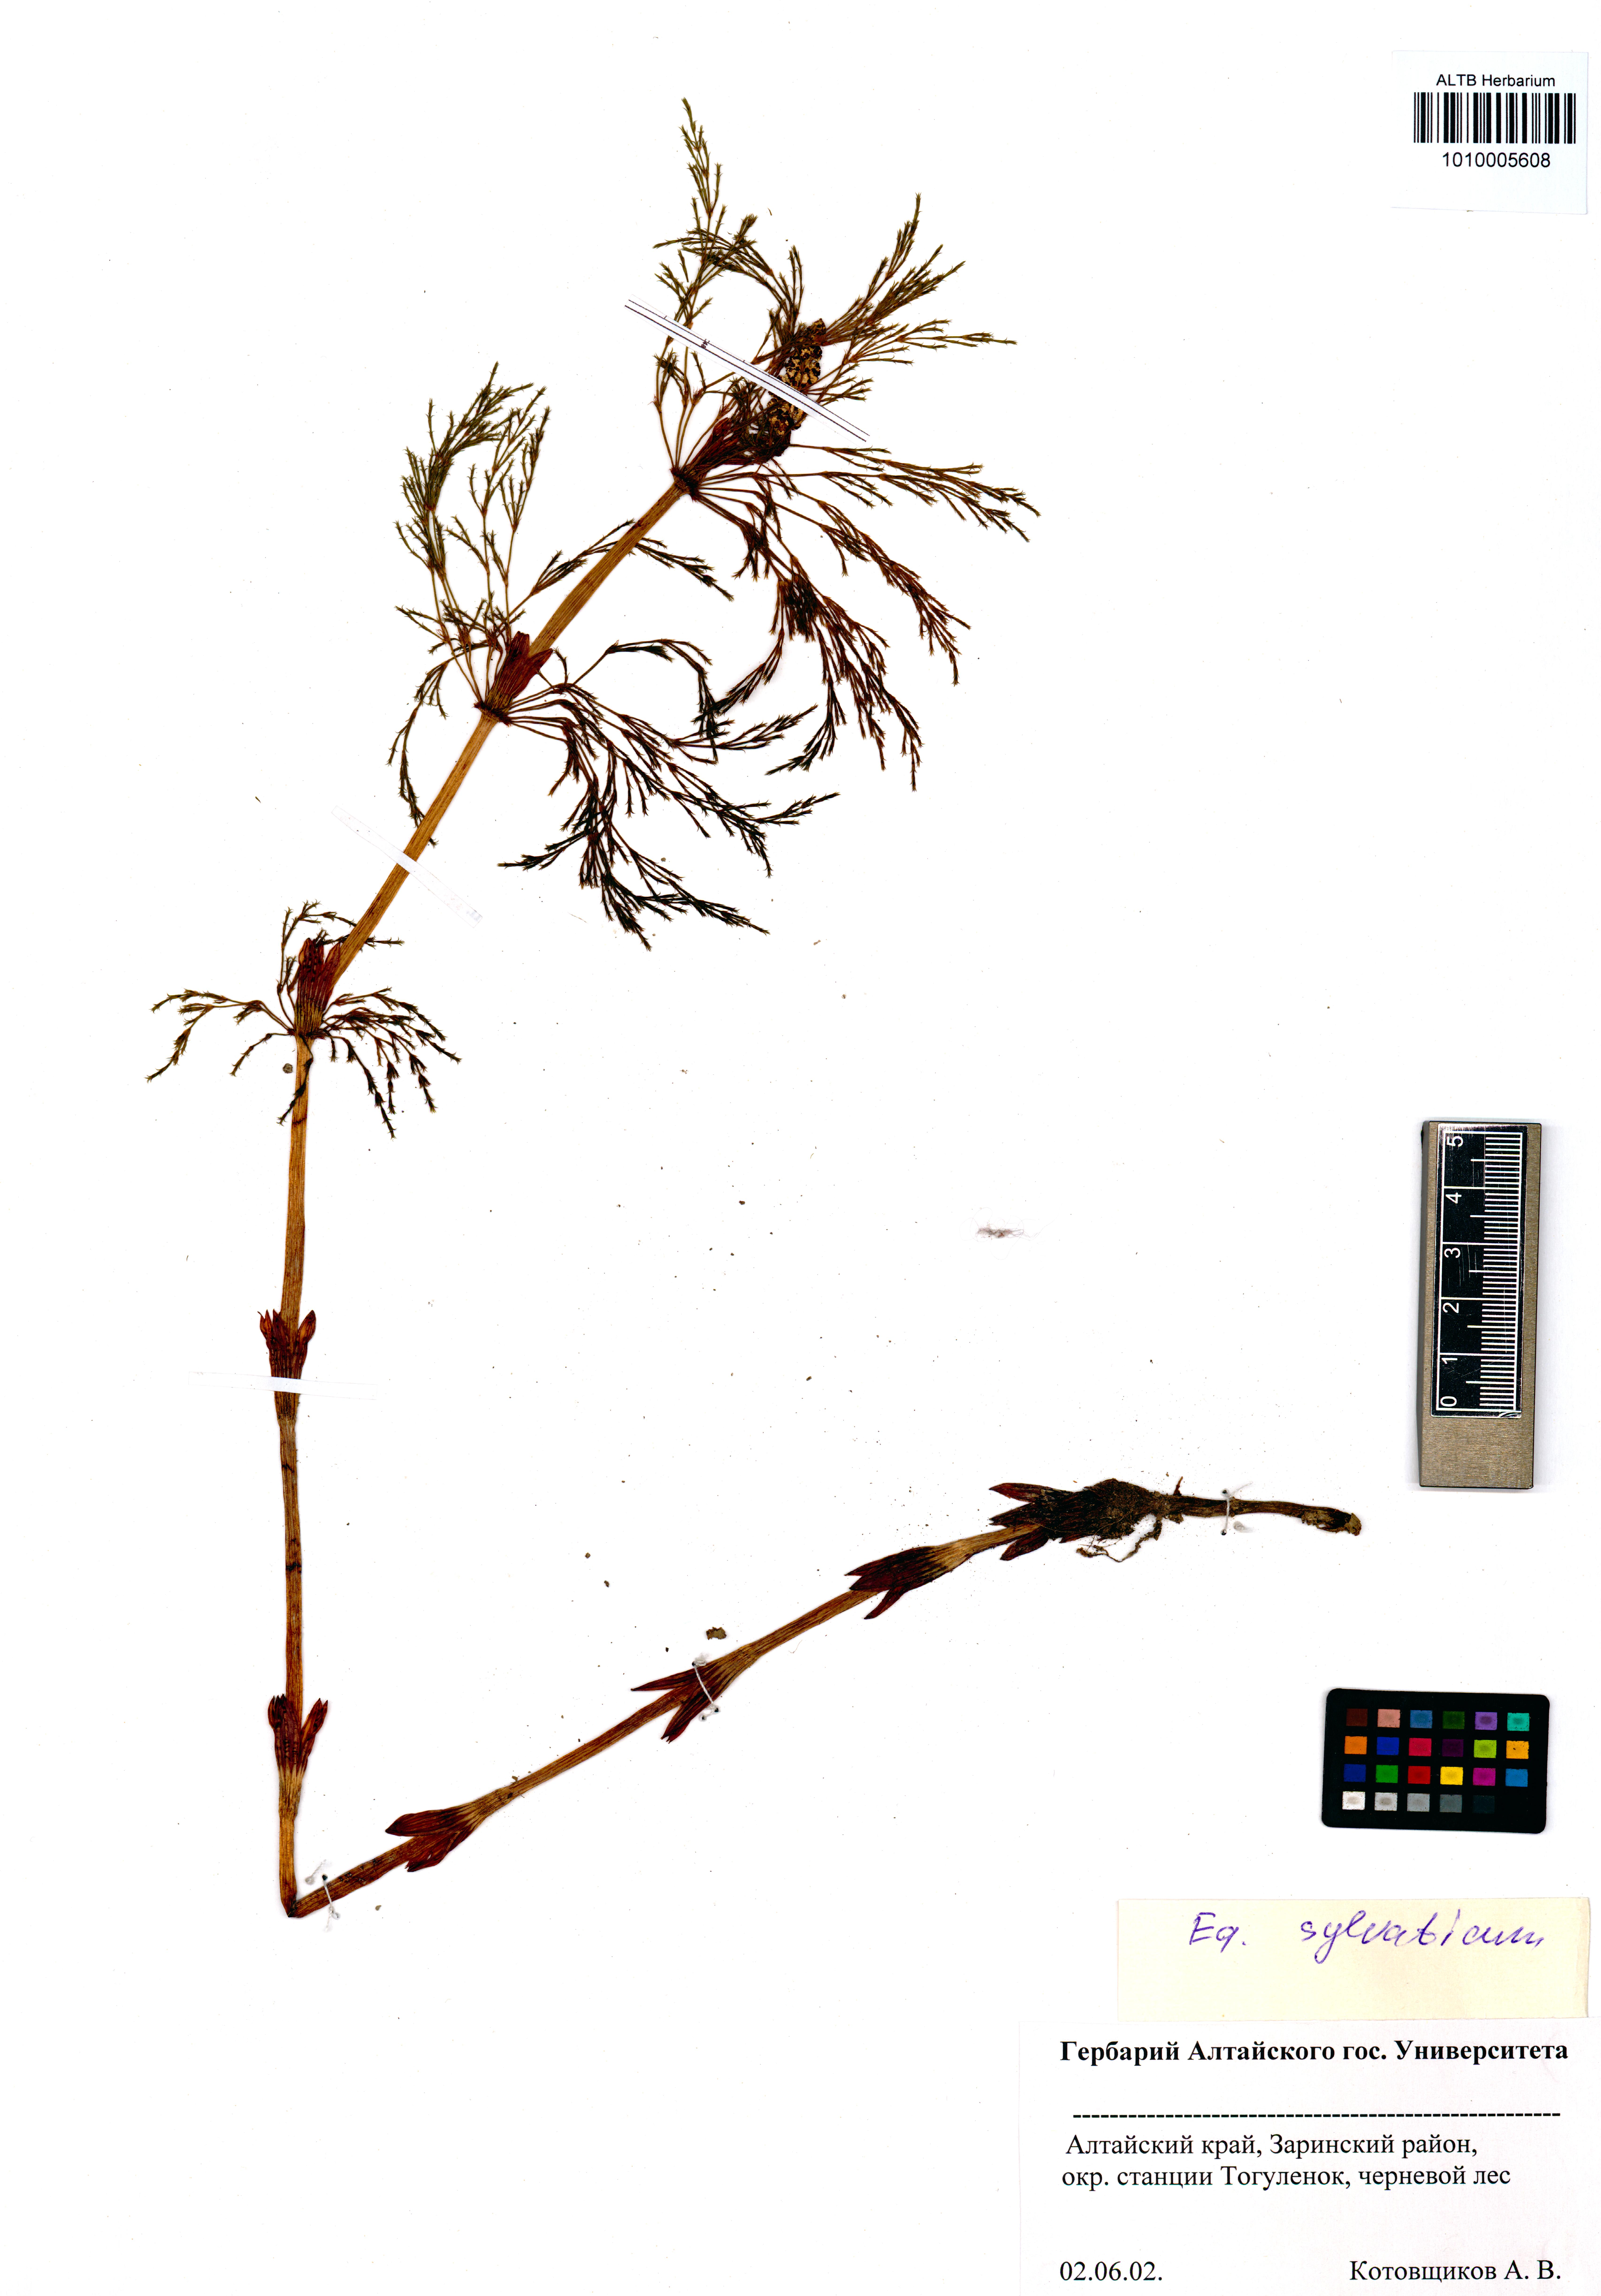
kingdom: Plantae
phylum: Tracheophyta
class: Polypodiopsida
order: Equisetales
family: Equisetaceae
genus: Equisetum
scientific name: Equisetum sylvaticum
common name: Wood horsetail
